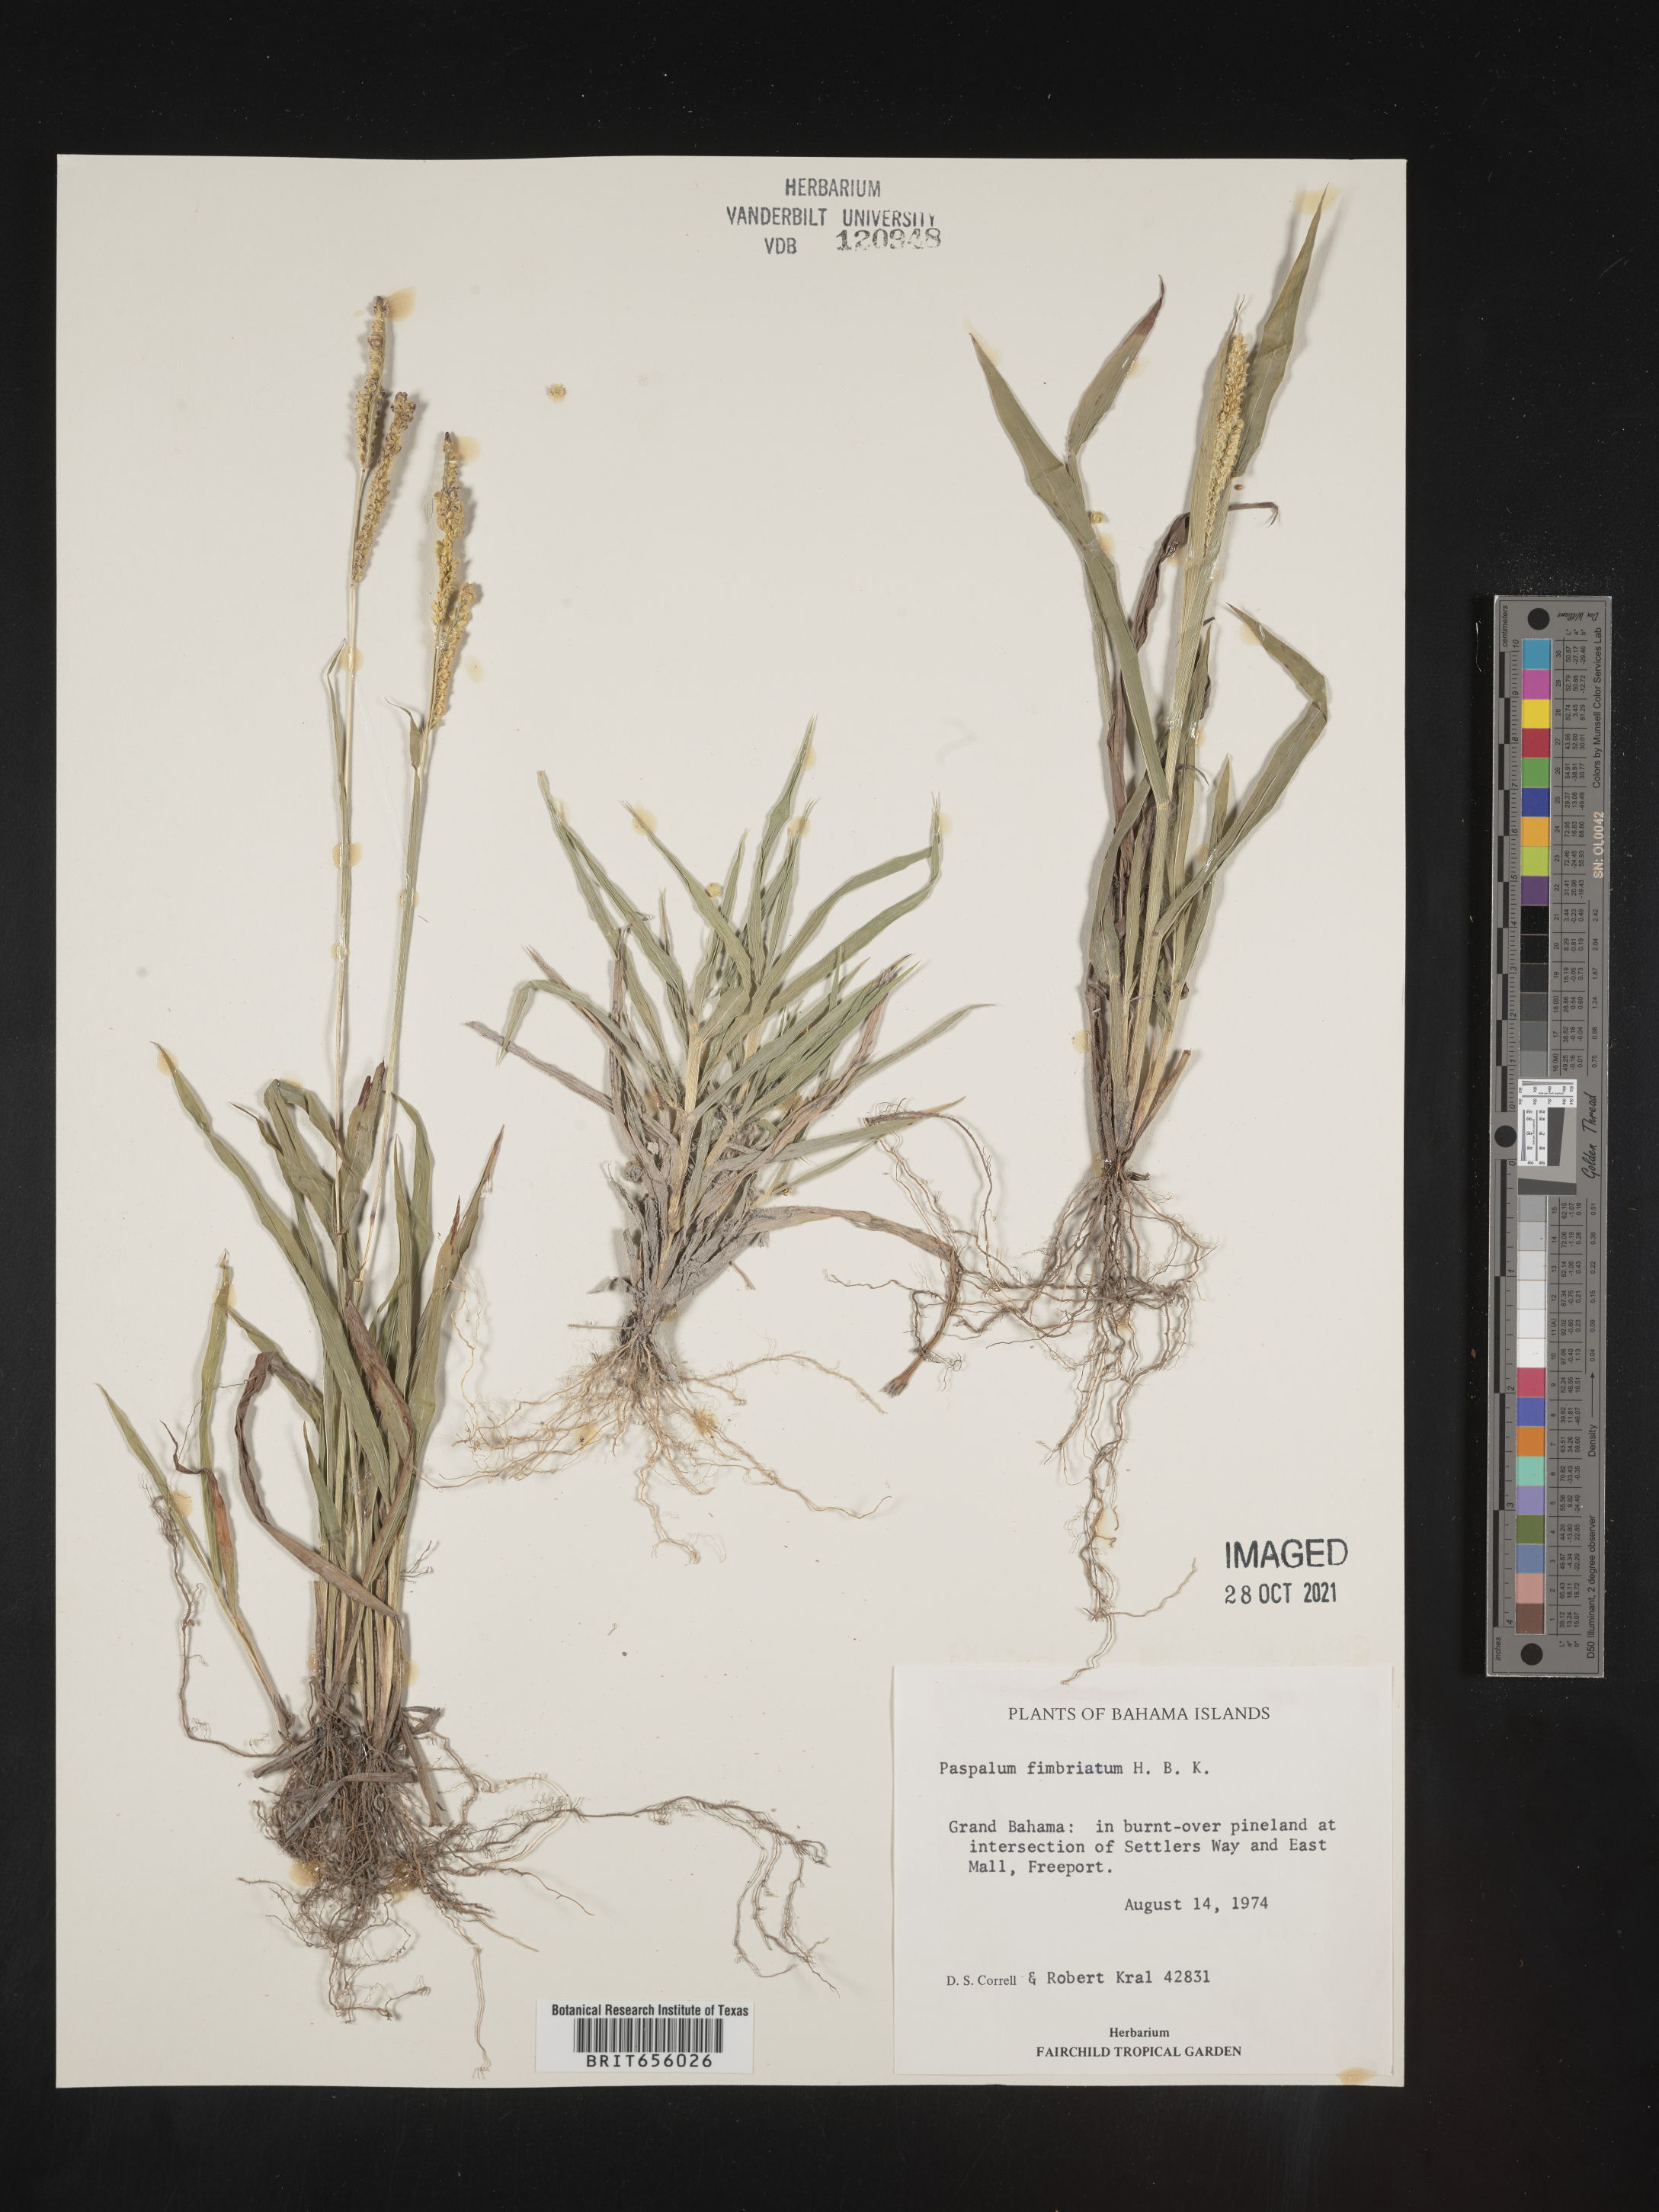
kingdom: Plantae
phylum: Tracheophyta
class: Liliopsida
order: Poales
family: Poaceae
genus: Paspalum
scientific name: Paspalum
